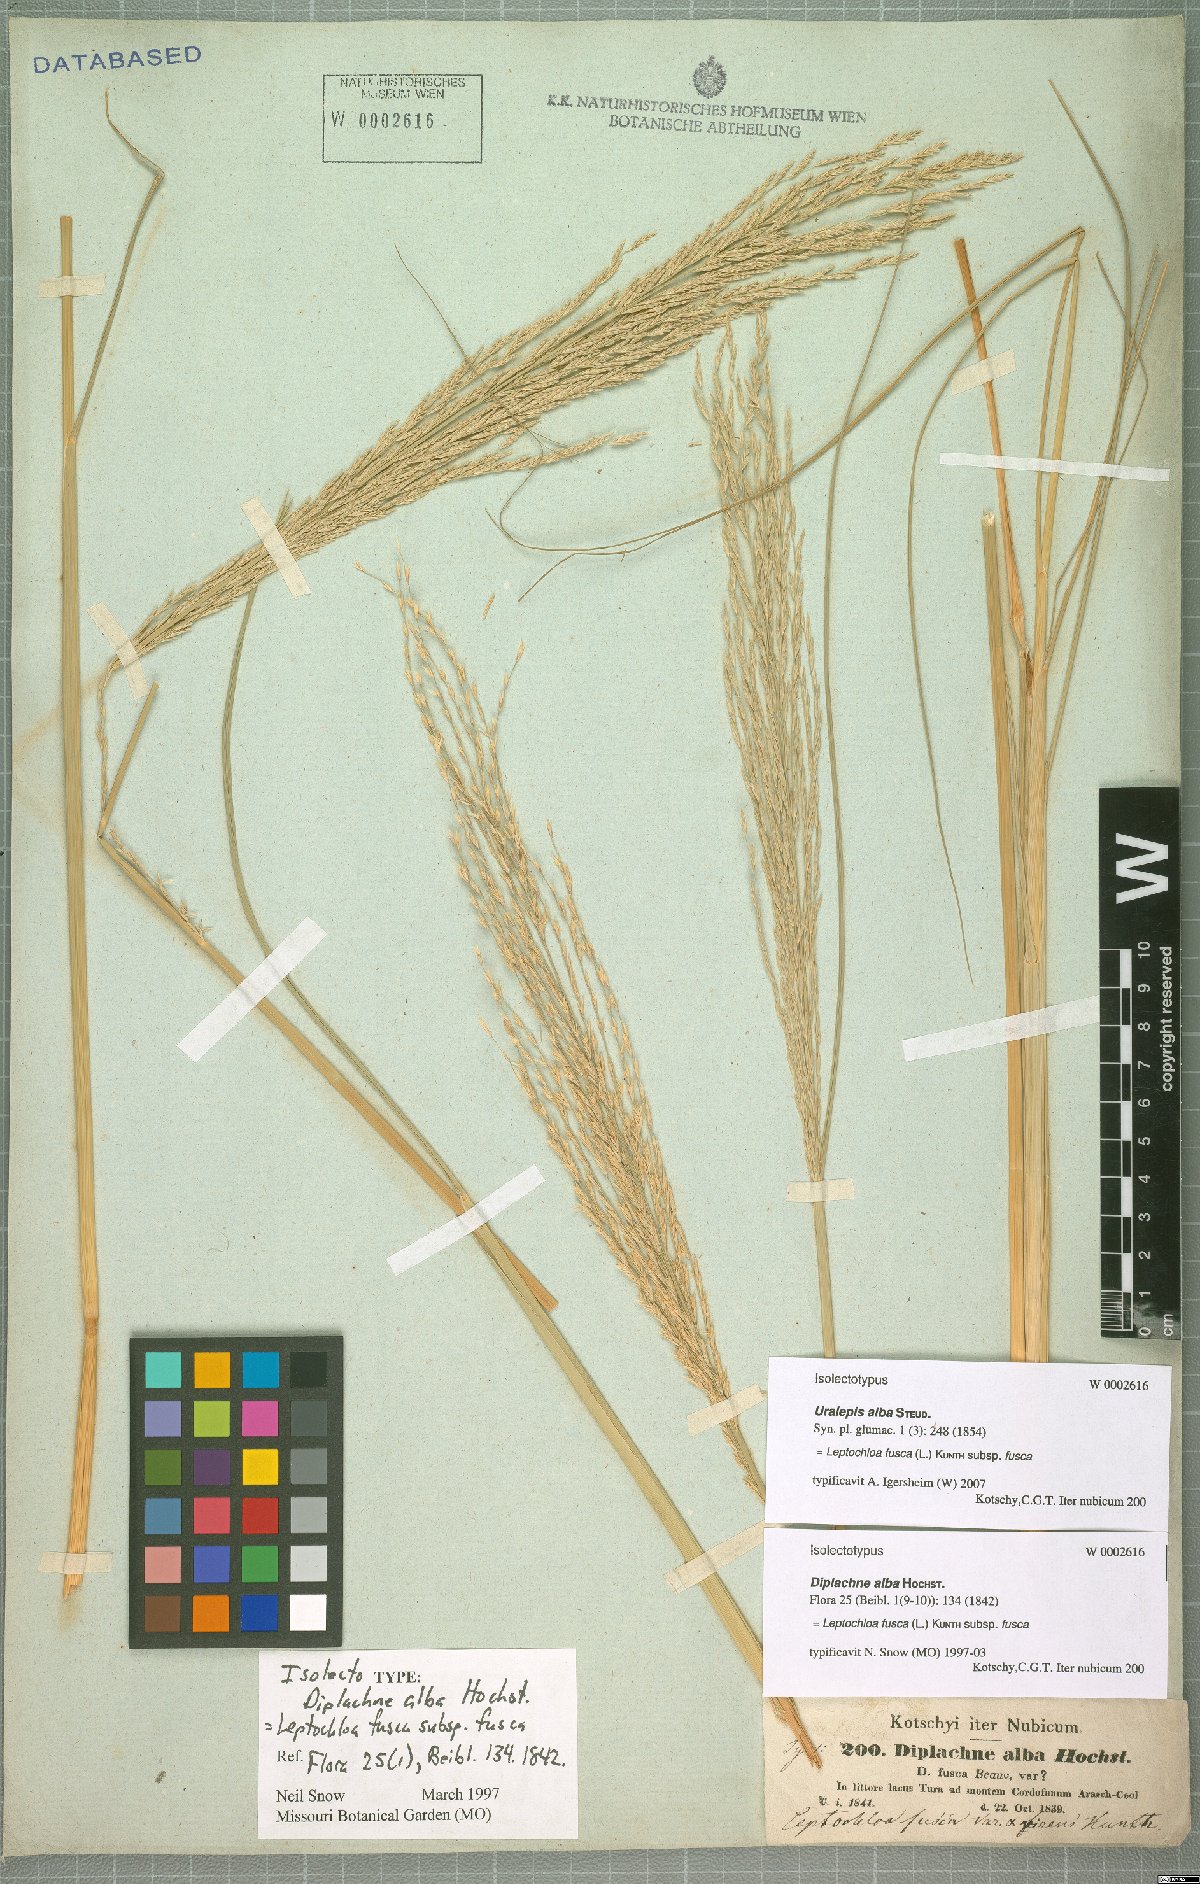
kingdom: Plantae
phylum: Tracheophyta
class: Liliopsida
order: Poales
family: Poaceae
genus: Diplachne
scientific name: Diplachne fusca
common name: Brown beetle grass
